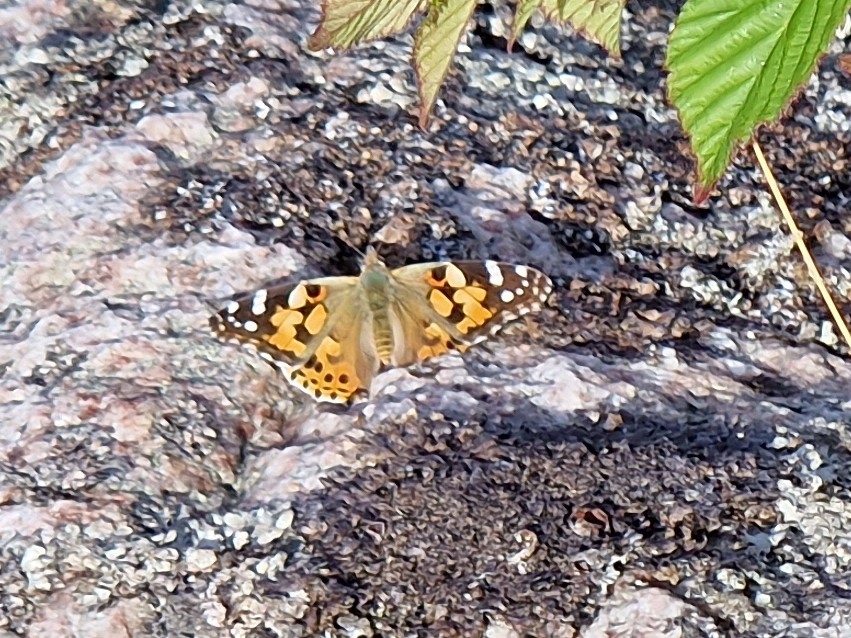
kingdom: Animalia
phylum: Arthropoda
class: Insecta
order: Lepidoptera
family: Nymphalidae
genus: Vanessa
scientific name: Vanessa cardui
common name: Tidselsommerfugl
